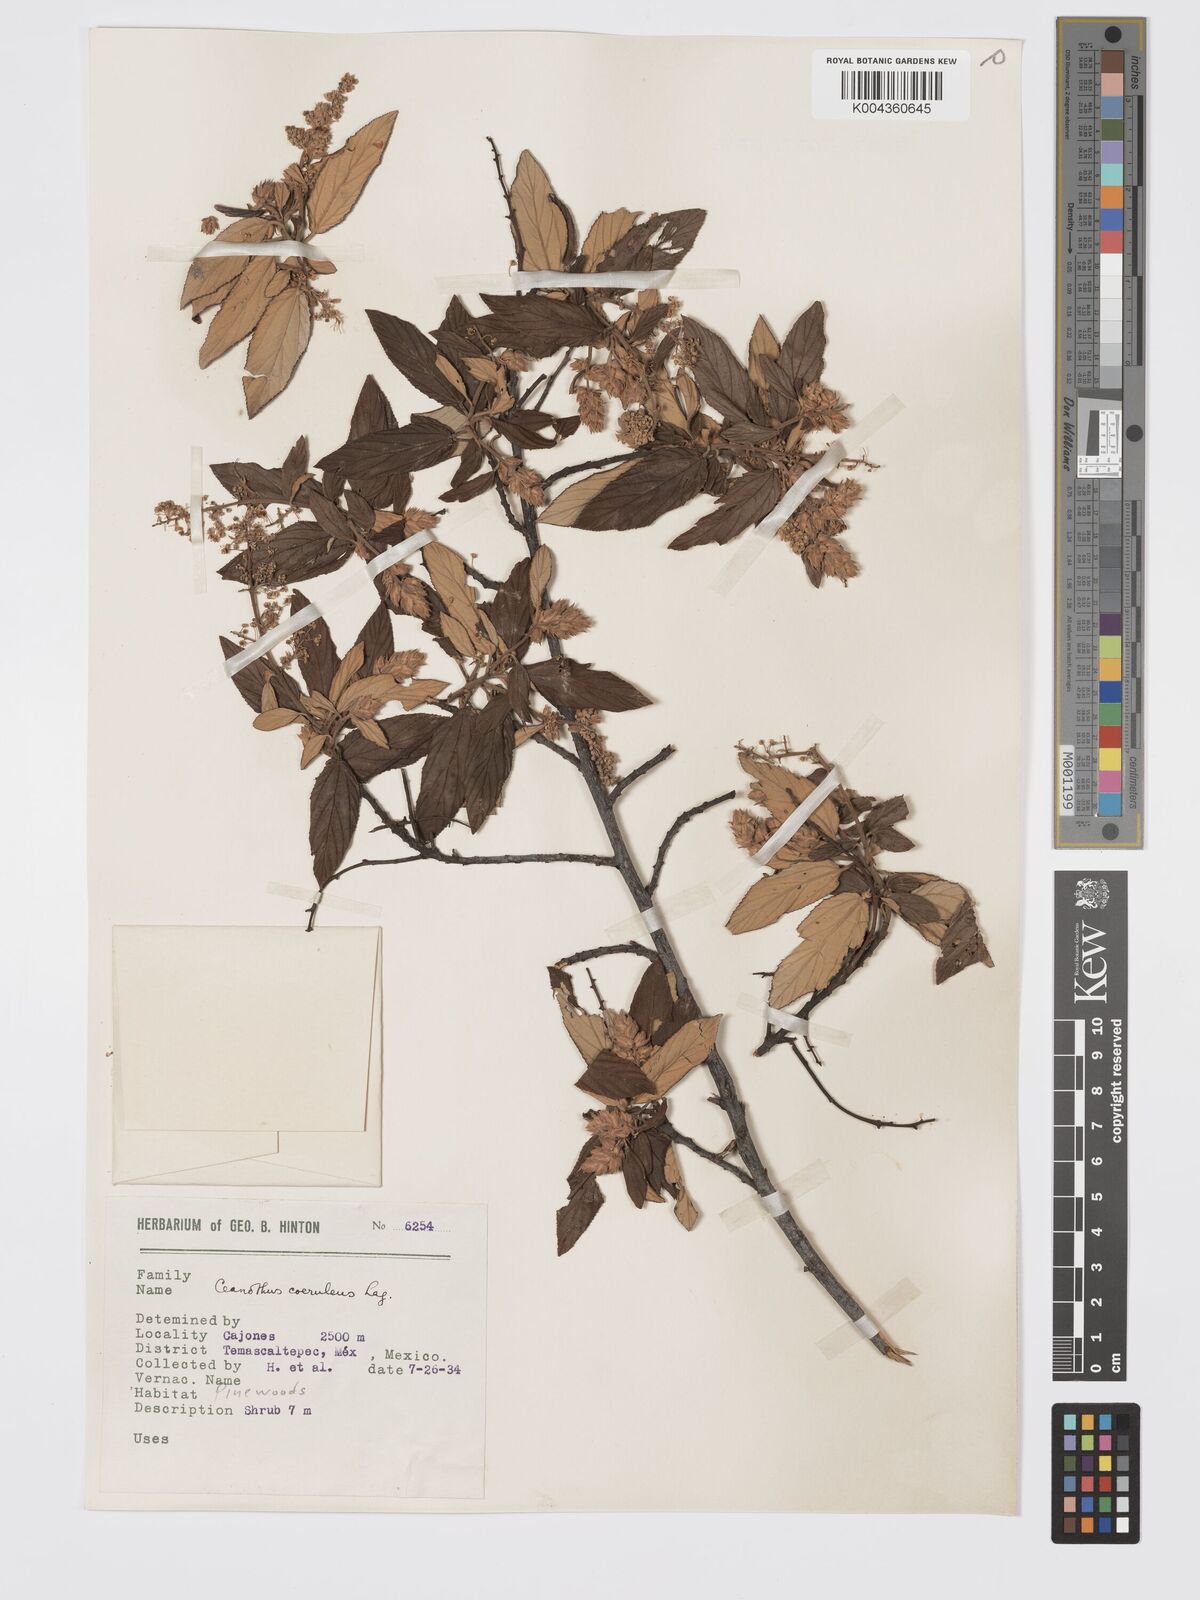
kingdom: Plantae
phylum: Tracheophyta
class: Magnoliopsida
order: Rosales
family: Rhamnaceae
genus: Ceanothus
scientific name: Ceanothus caeruleus
